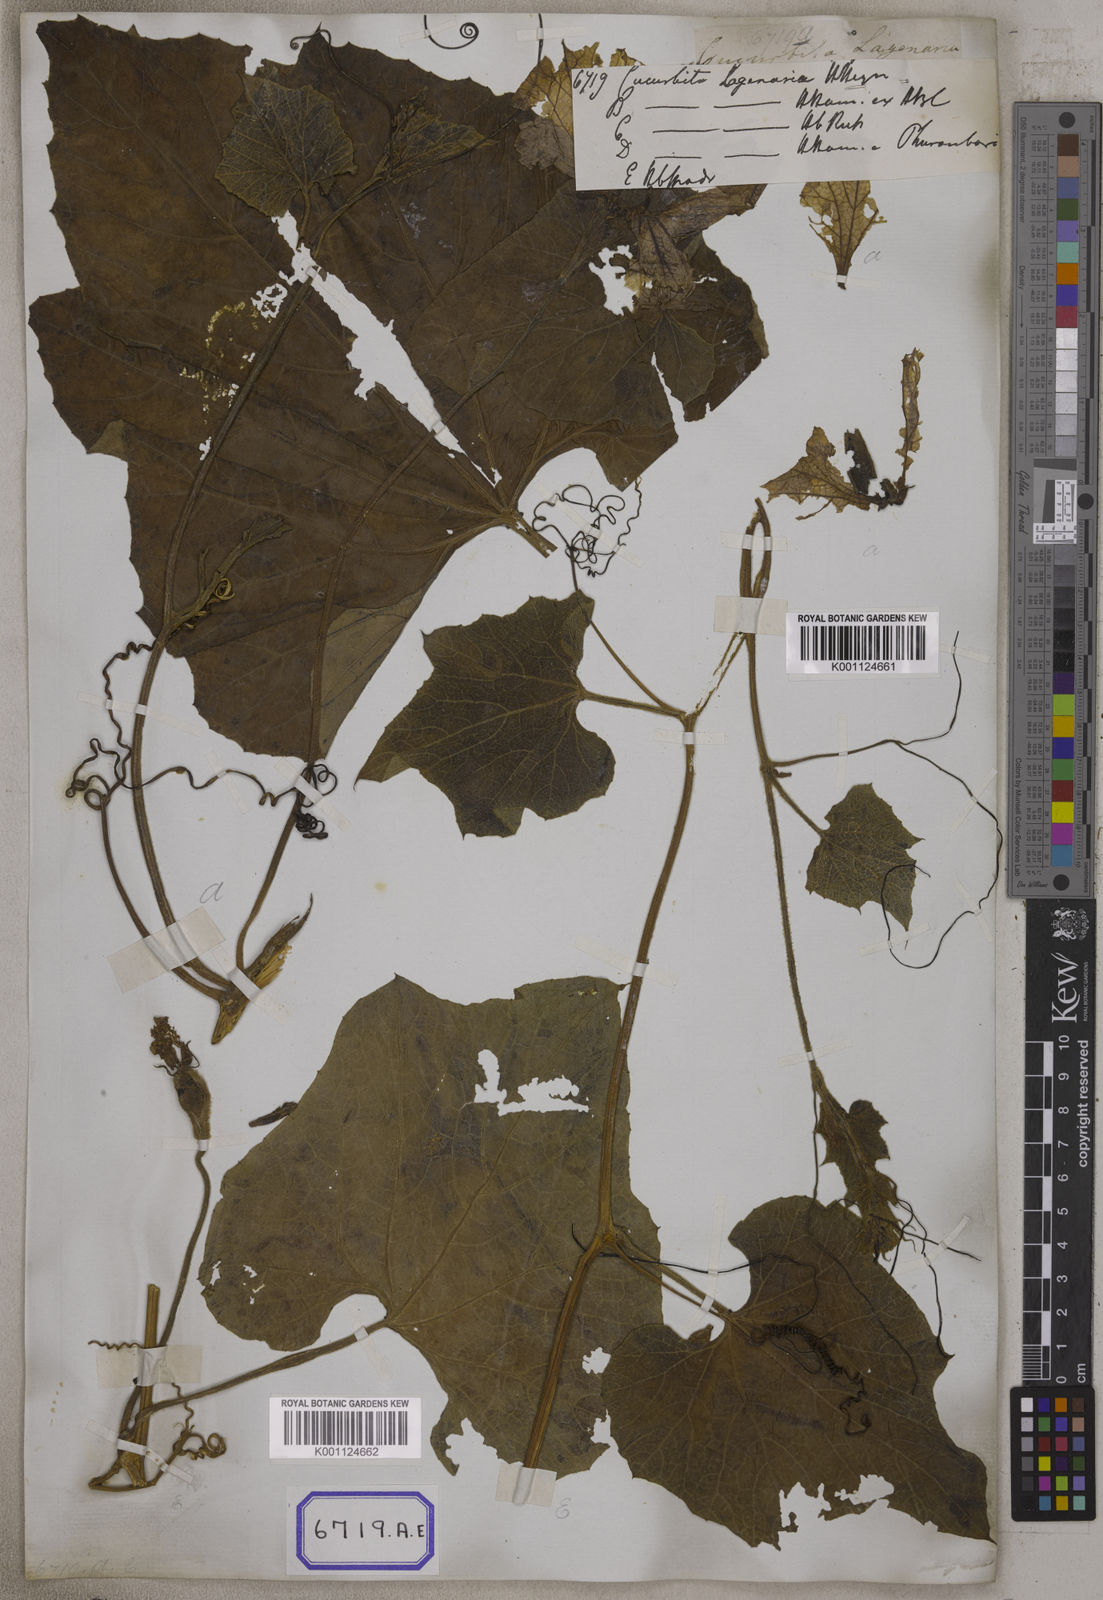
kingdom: Plantae
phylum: Tracheophyta
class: Magnoliopsida
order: Cucurbitales
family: Cucurbitaceae
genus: Lagenaria
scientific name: Lagenaria siceraria
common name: Bottle gourd
